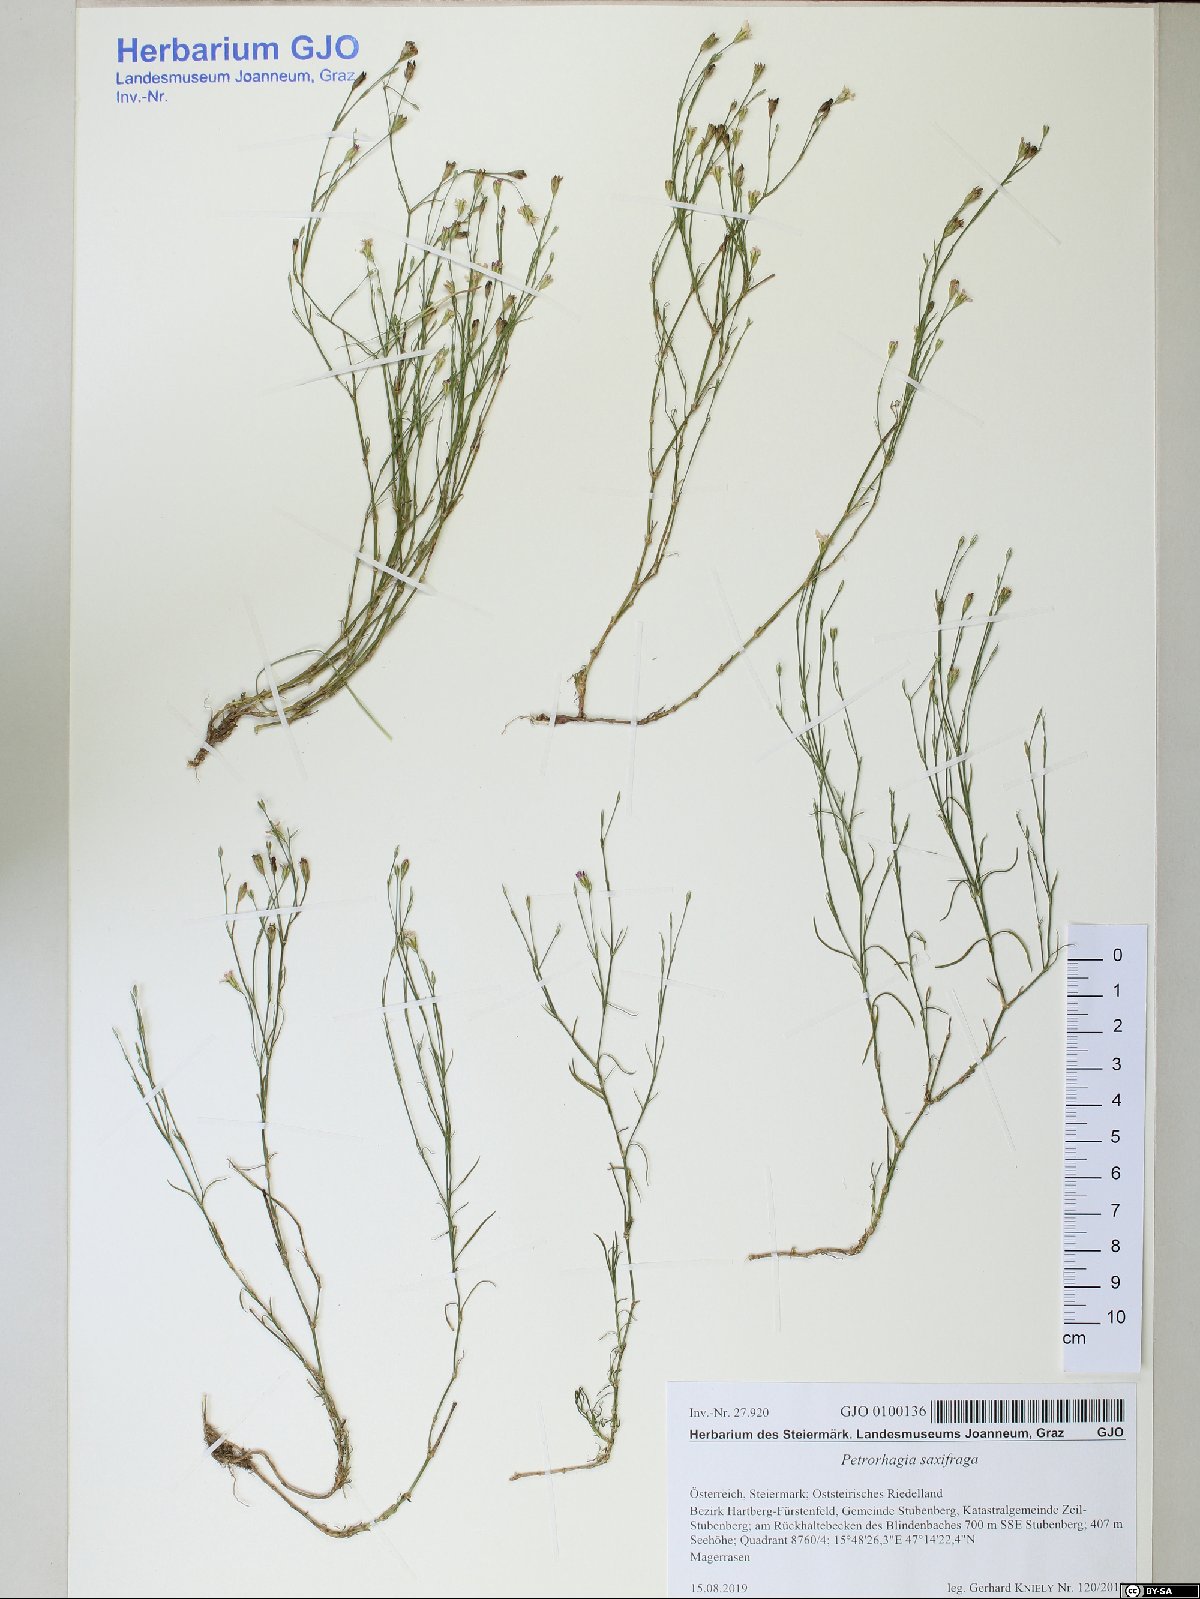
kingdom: Plantae
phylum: Tracheophyta
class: Magnoliopsida
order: Caryophyllales
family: Caryophyllaceae
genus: Petrorhagia
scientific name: Petrorhagia saxifraga
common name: Tunicflower
